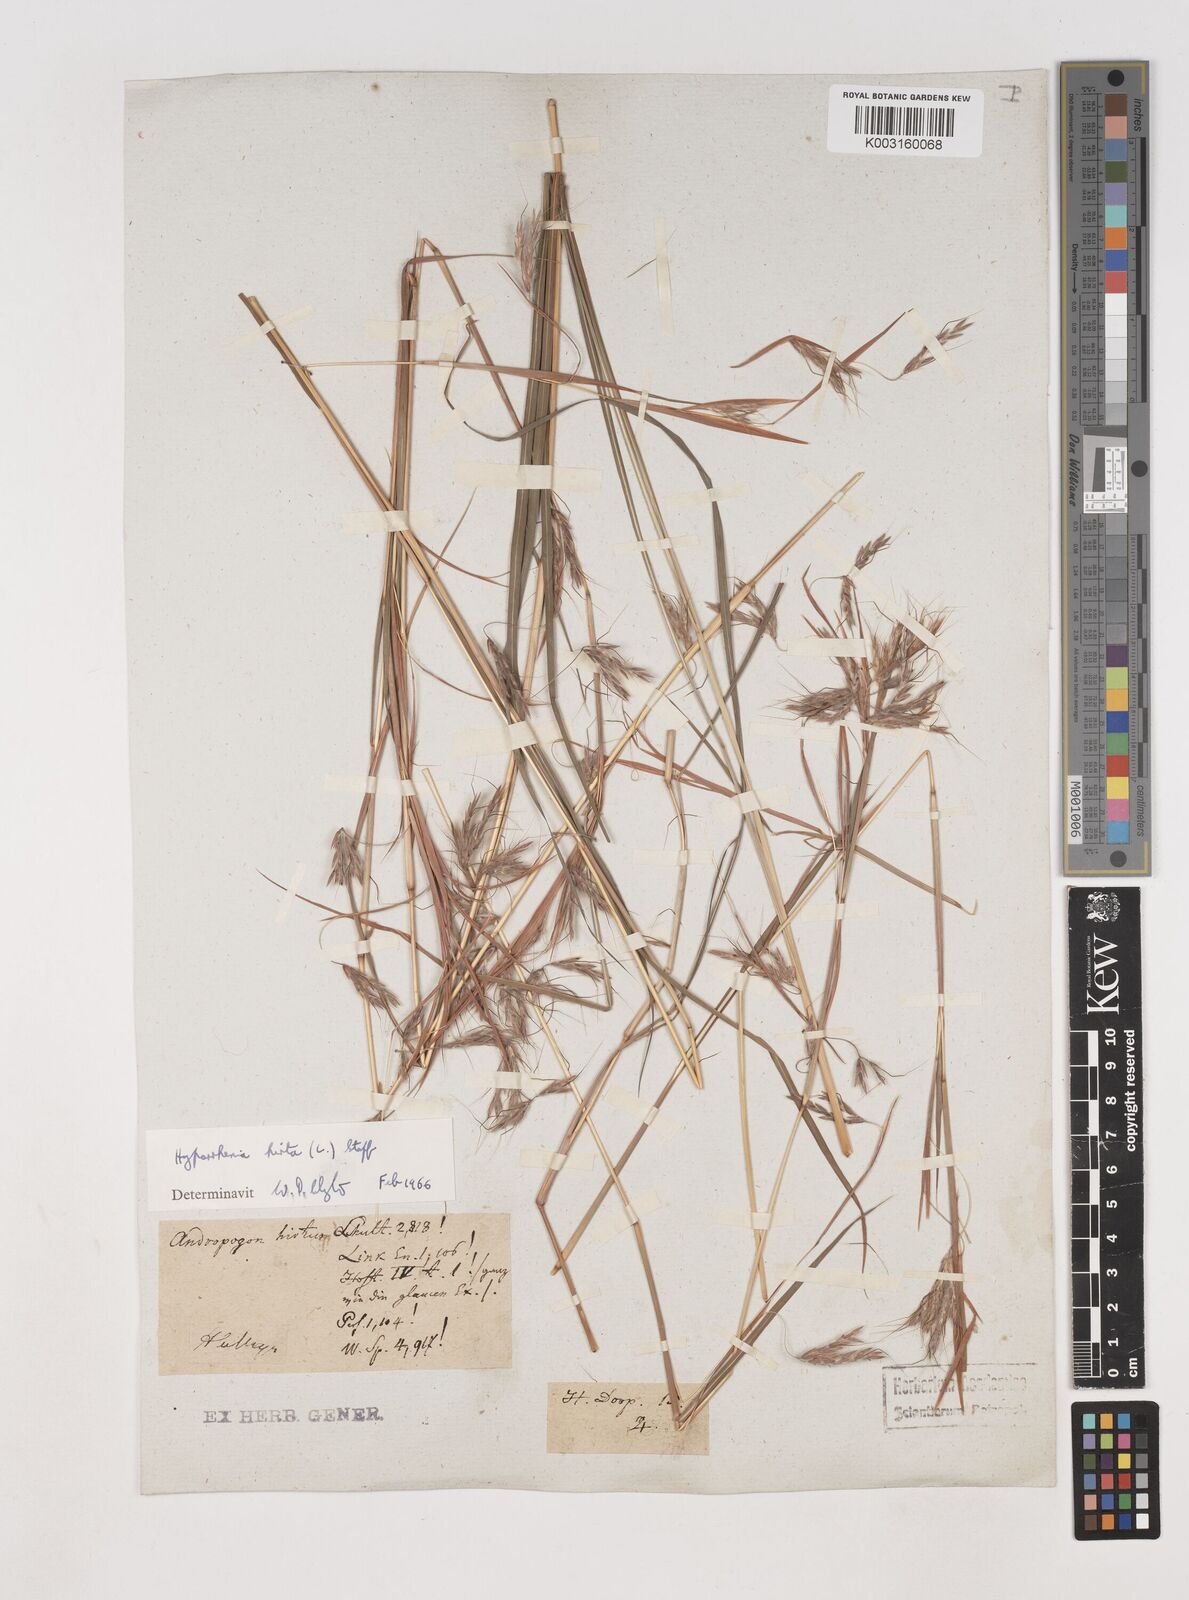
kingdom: Plantae
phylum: Tracheophyta
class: Liliopsida
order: Poales
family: Poaceae
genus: Hyparrhenia
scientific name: Hyparrhenia hirta
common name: Thatching grass
